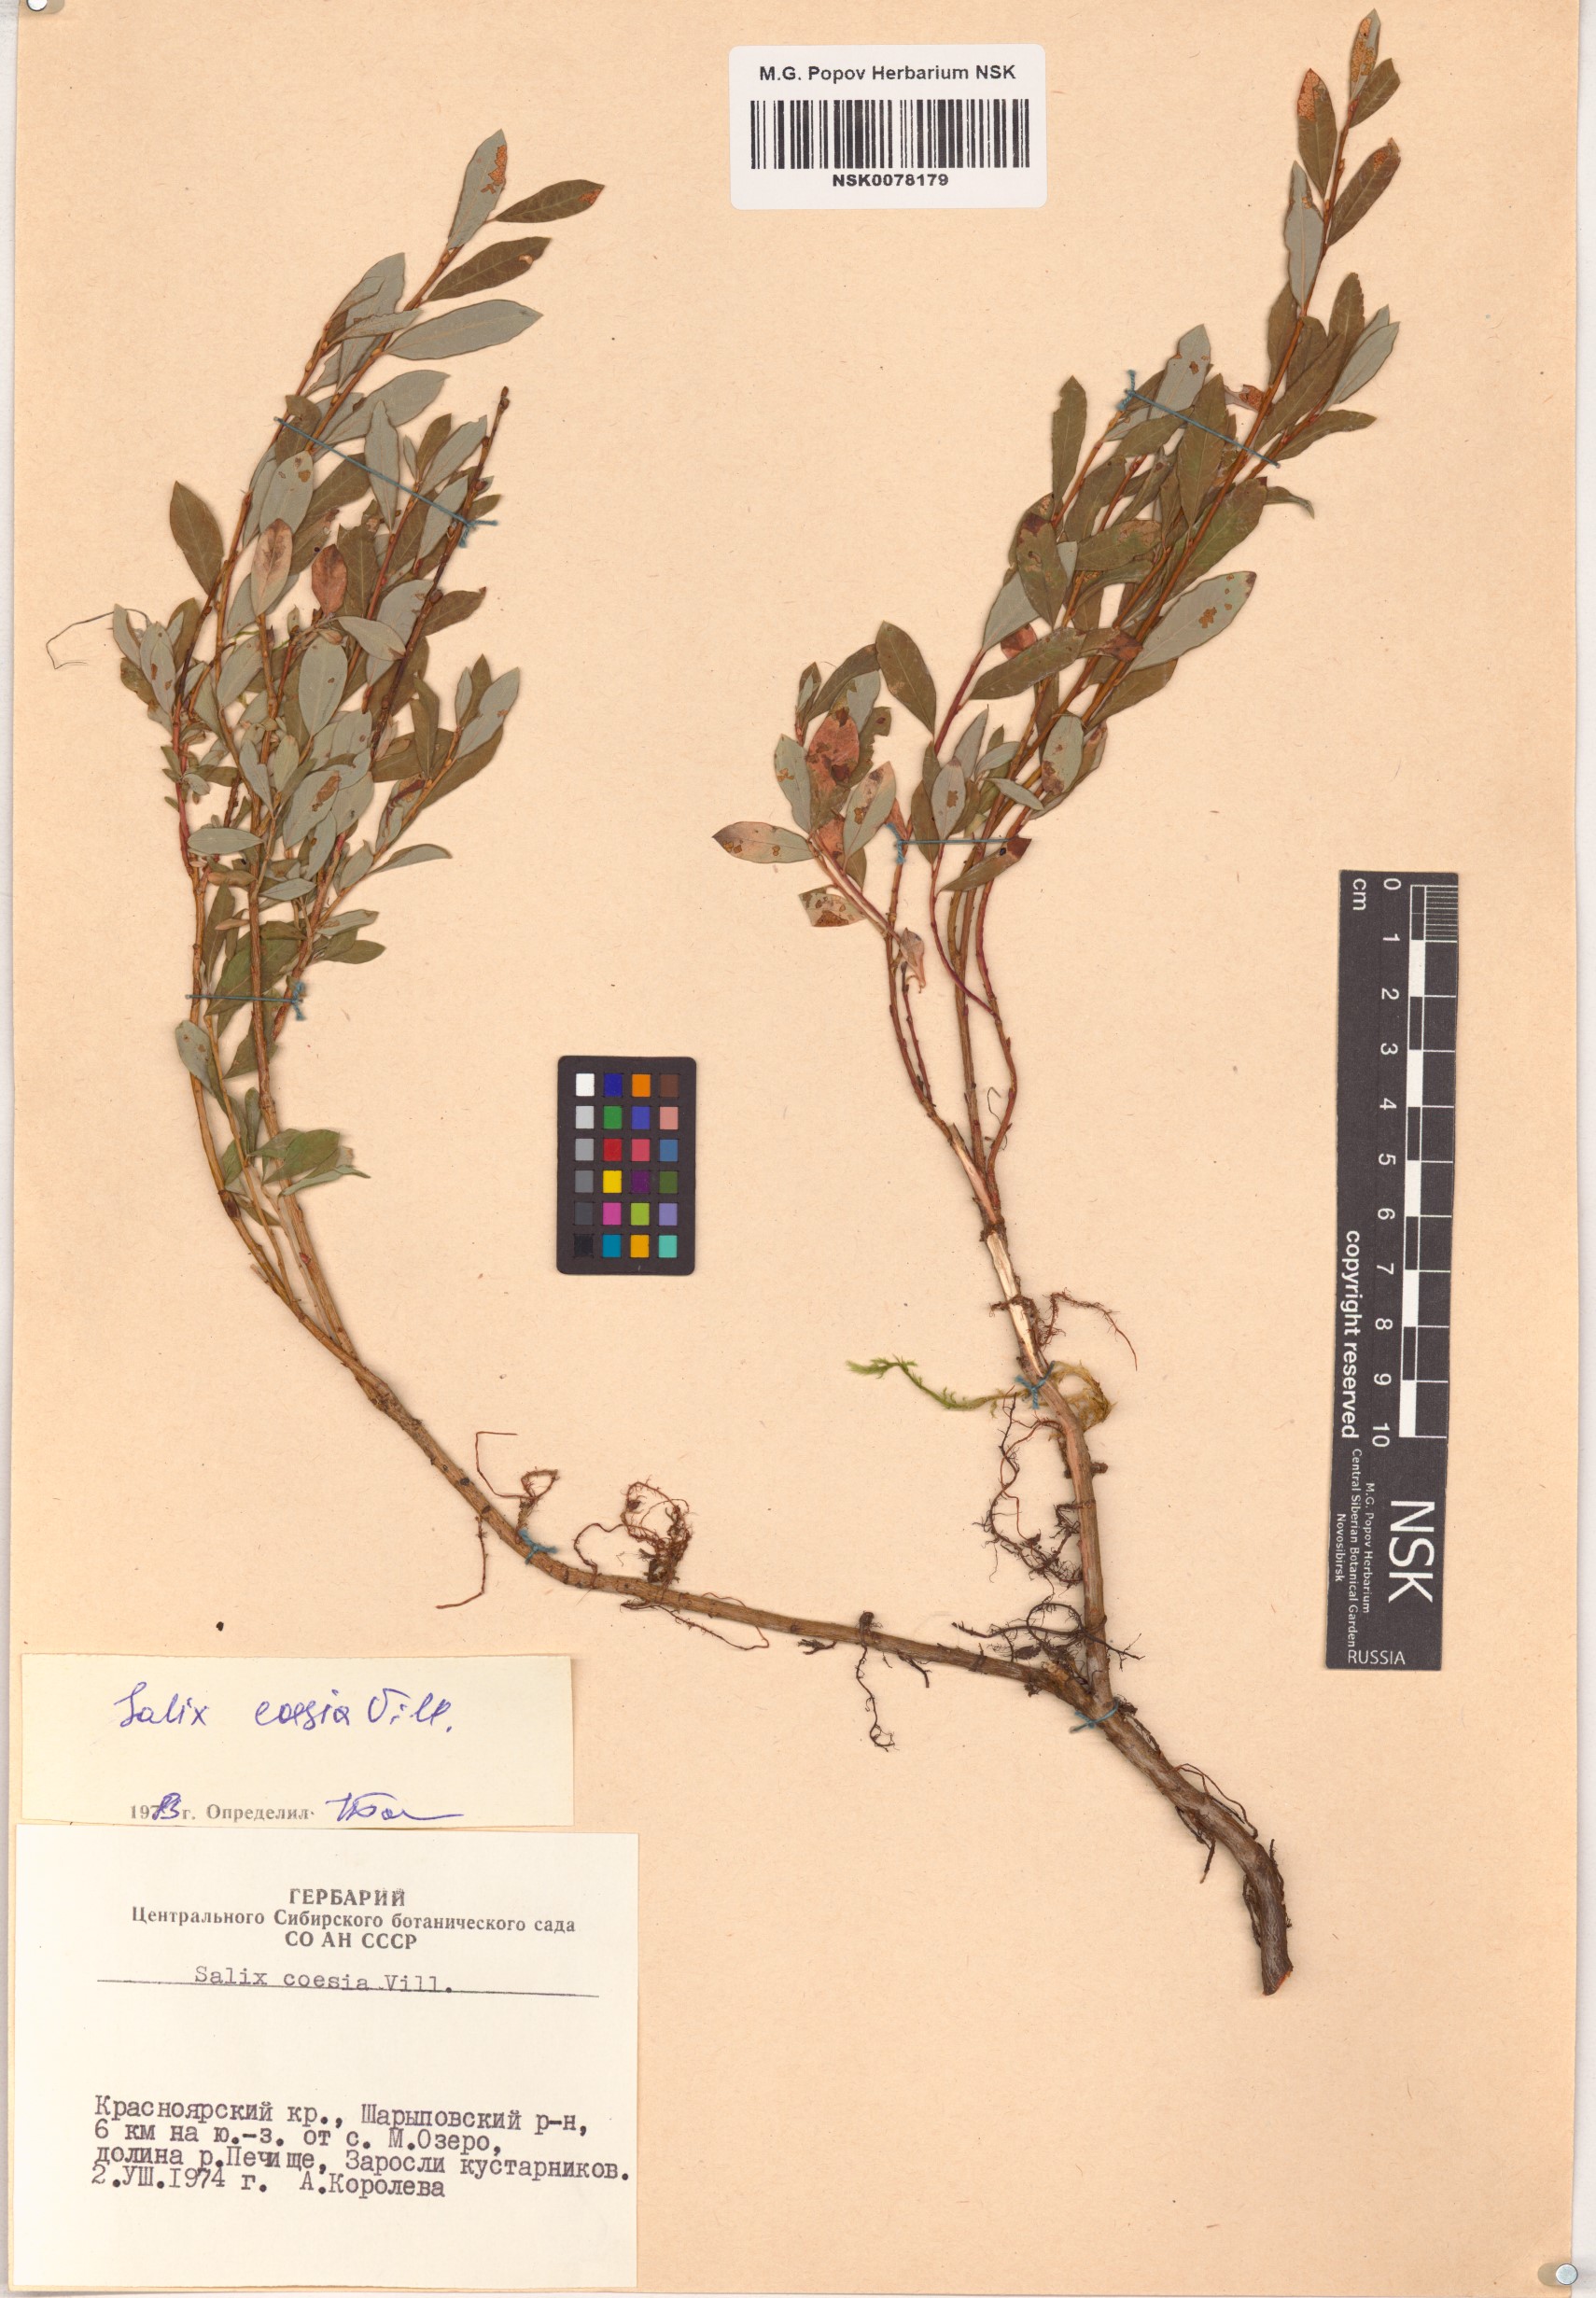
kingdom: Plantae
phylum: Tracheophyta
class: Magnoliopsida
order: Malpighiales
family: Salicaceae
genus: Salix
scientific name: Salix caesia
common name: Blue willow
